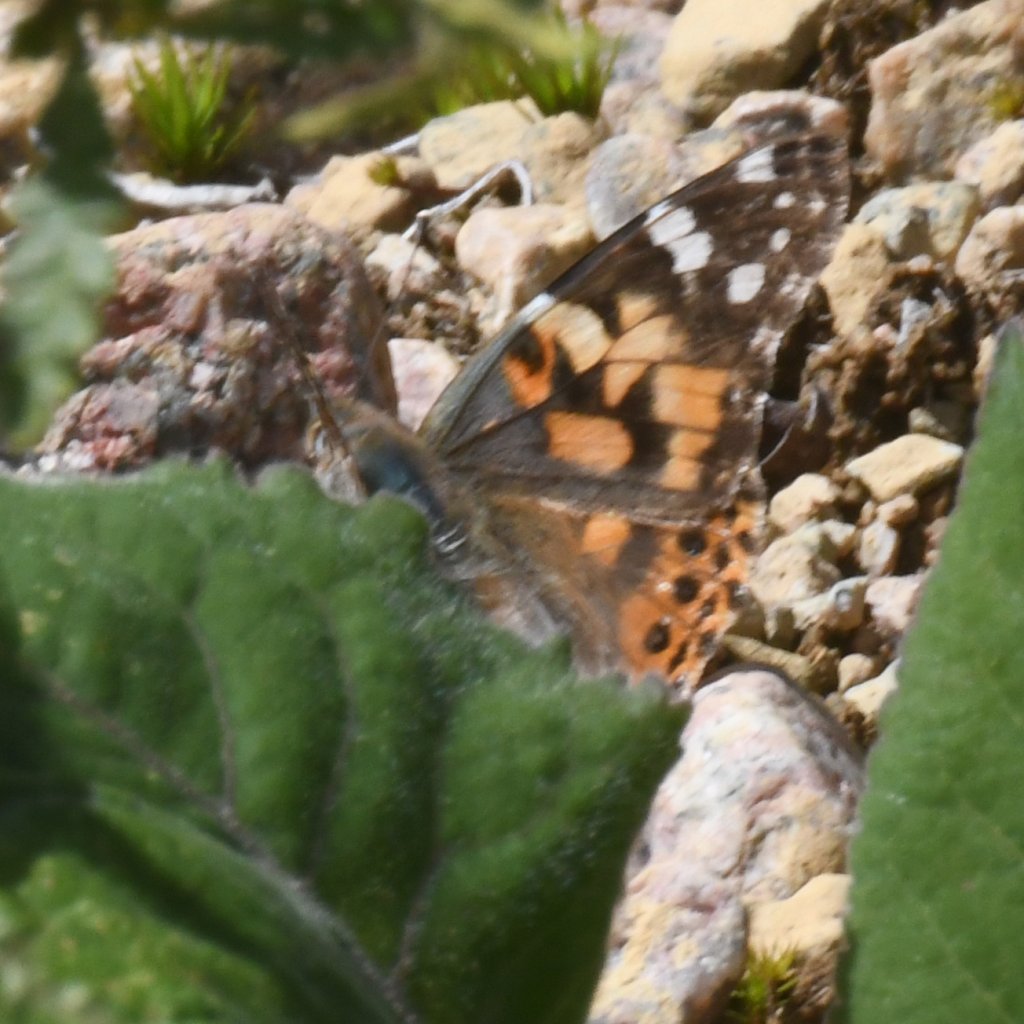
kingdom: Animalia
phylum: Arthropoda
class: Insecta
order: Lepidoptera
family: Nymphalidae
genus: Vanessa
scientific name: Vanessa cardui
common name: Painted Lady
